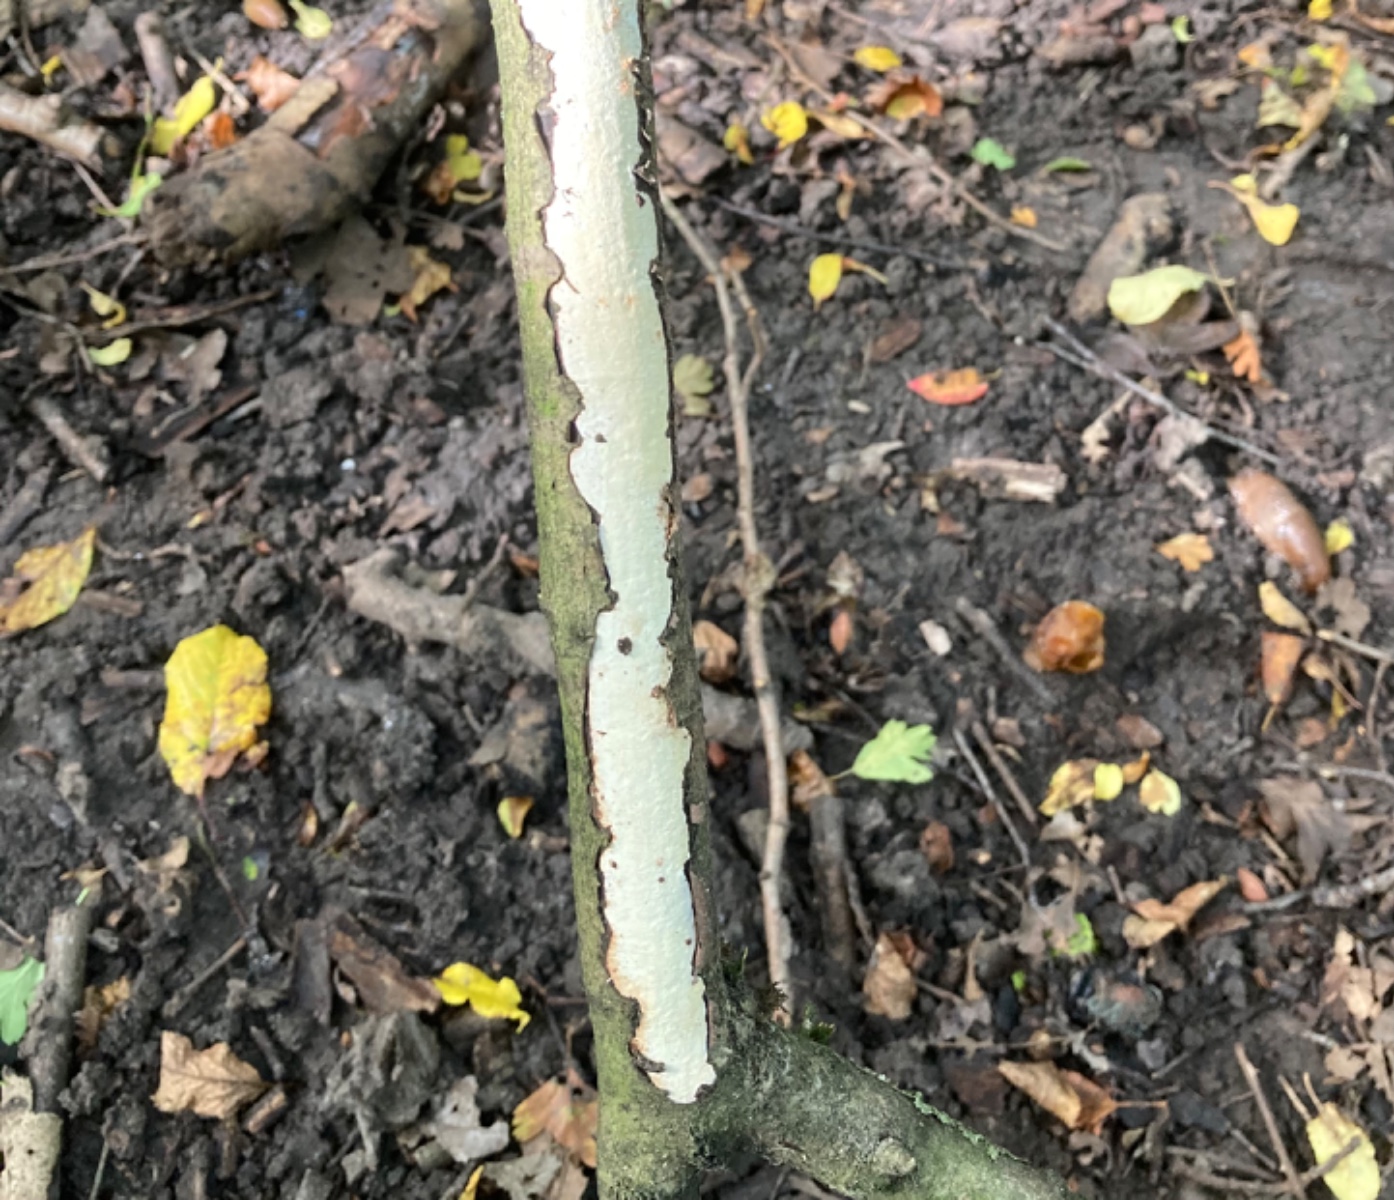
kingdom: Fungi
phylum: Basidiomycota
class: Agaricomycetes
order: Corticiales
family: Vuilleminiaceae
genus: Vuilleminia
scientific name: Vuilleminia cystidiata
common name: tjørne-barksprænger
